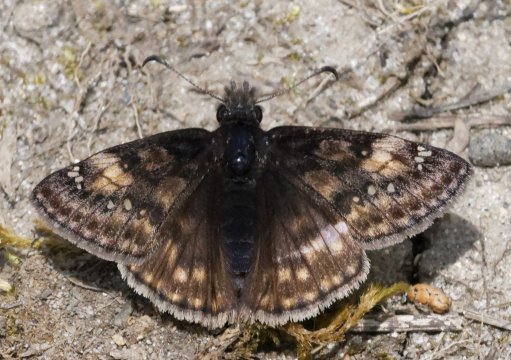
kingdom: Animalia
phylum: Arthropoda
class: Insecta
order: Lepidoptera
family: Hesperiidae
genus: Gesta
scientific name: Gesta
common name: Juvenal's Duskywing
